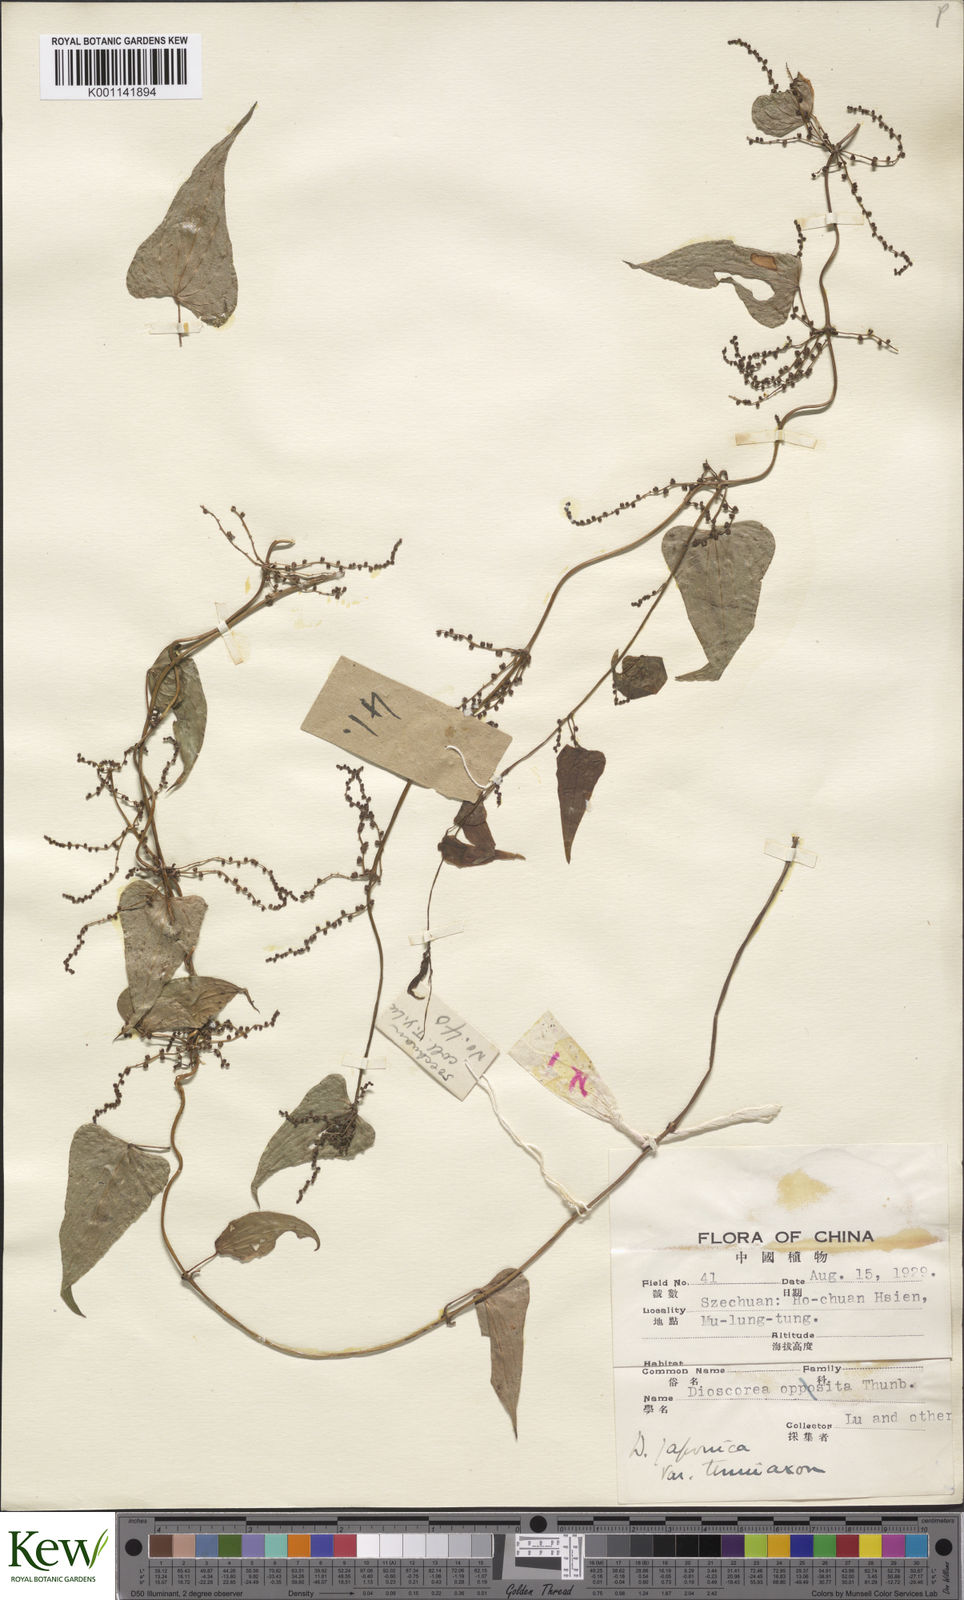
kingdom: Plantae
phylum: Tracheophyta
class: Liliopsida
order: Dioscoreales
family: Dioscoreaceae
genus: Dioscorea
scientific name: Dioscorea japonica
